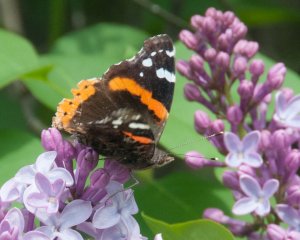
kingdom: Animalia
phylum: Arthropoda
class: Insecta
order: Lepidoptera
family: Nymphalidae
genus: Vanessa
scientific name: Vanessa atalanta
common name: Red Admiral
